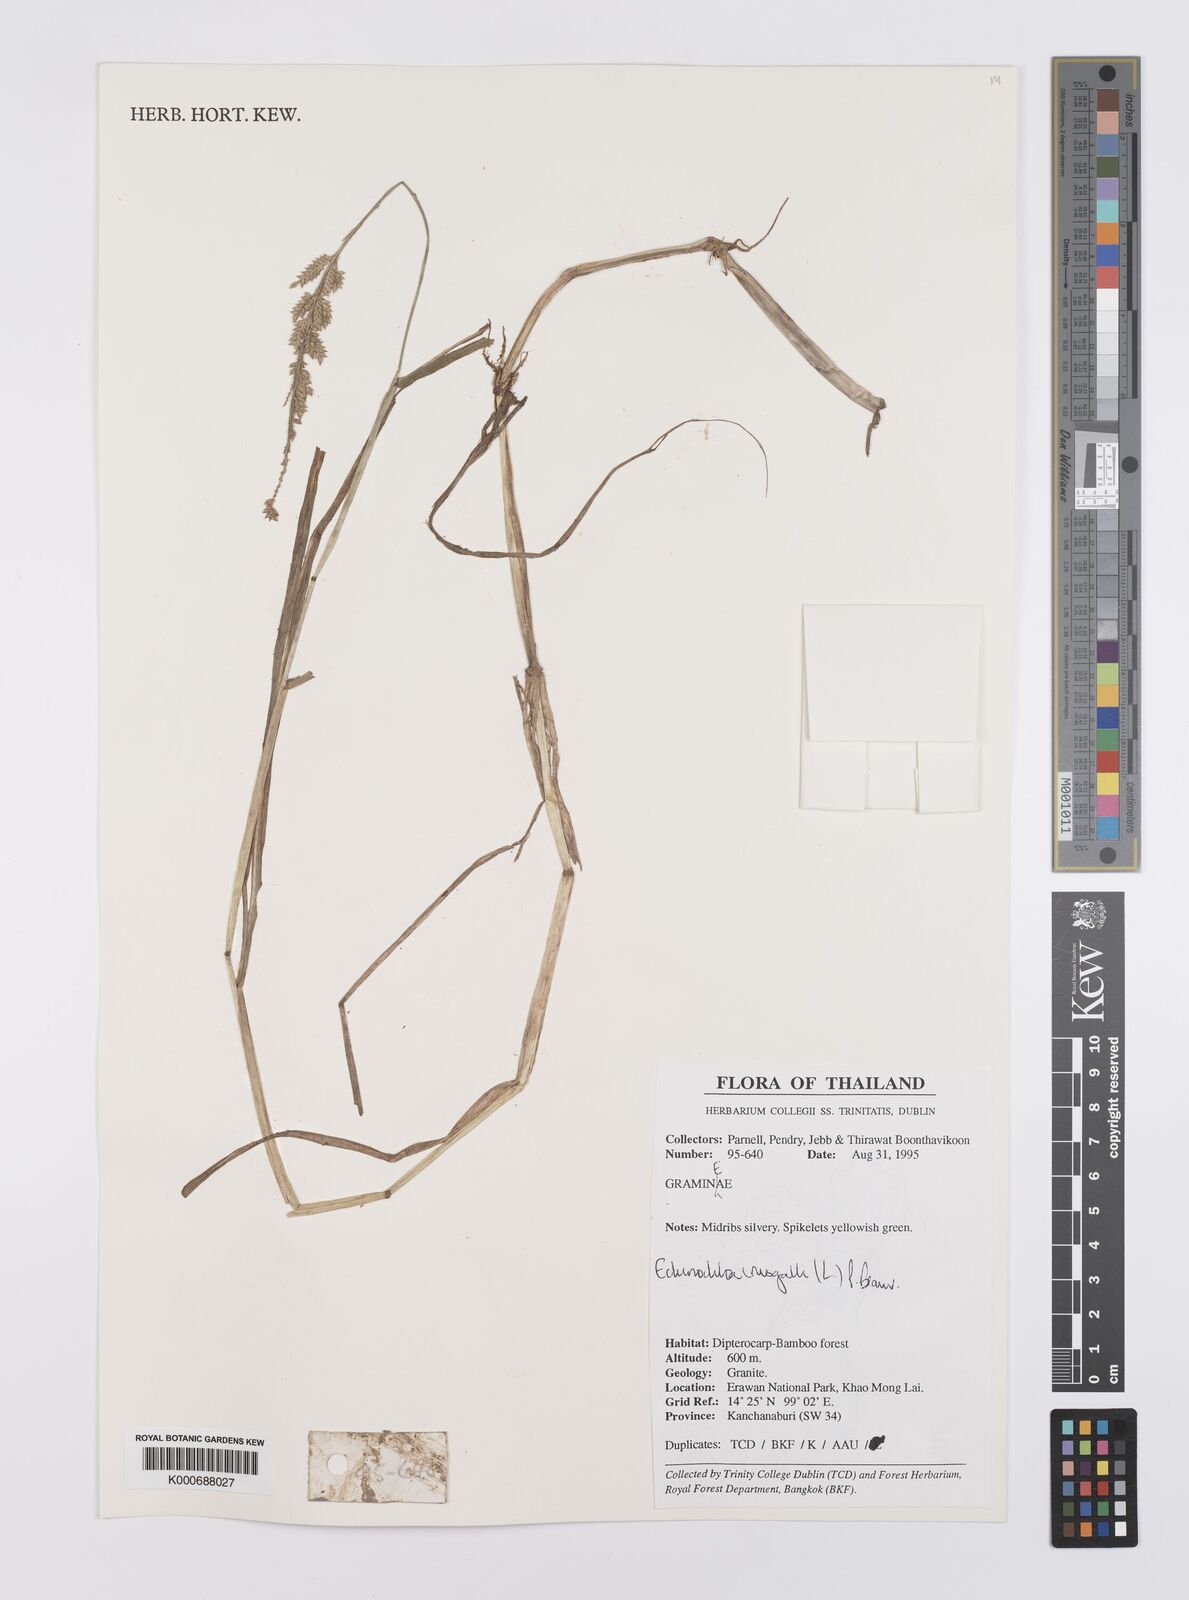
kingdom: Plantae
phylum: Tracheophyta
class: Liliopsida
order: Poales
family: Poaceae
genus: Echinochloa
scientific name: Echinochloa crus-galli
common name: Cockspur
